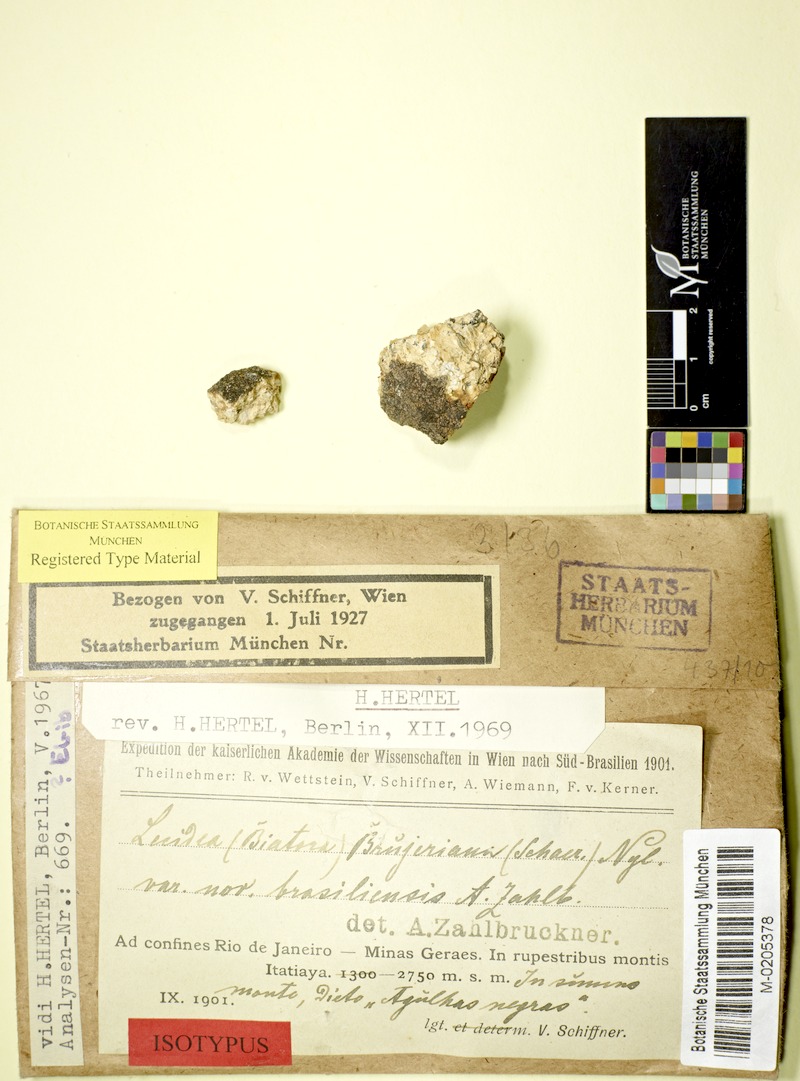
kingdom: Fungi
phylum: Ascomycota
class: Lecanoromycetes
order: Baeomycetales
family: Trapeliaceae
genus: Trapelia
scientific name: Trapelia
